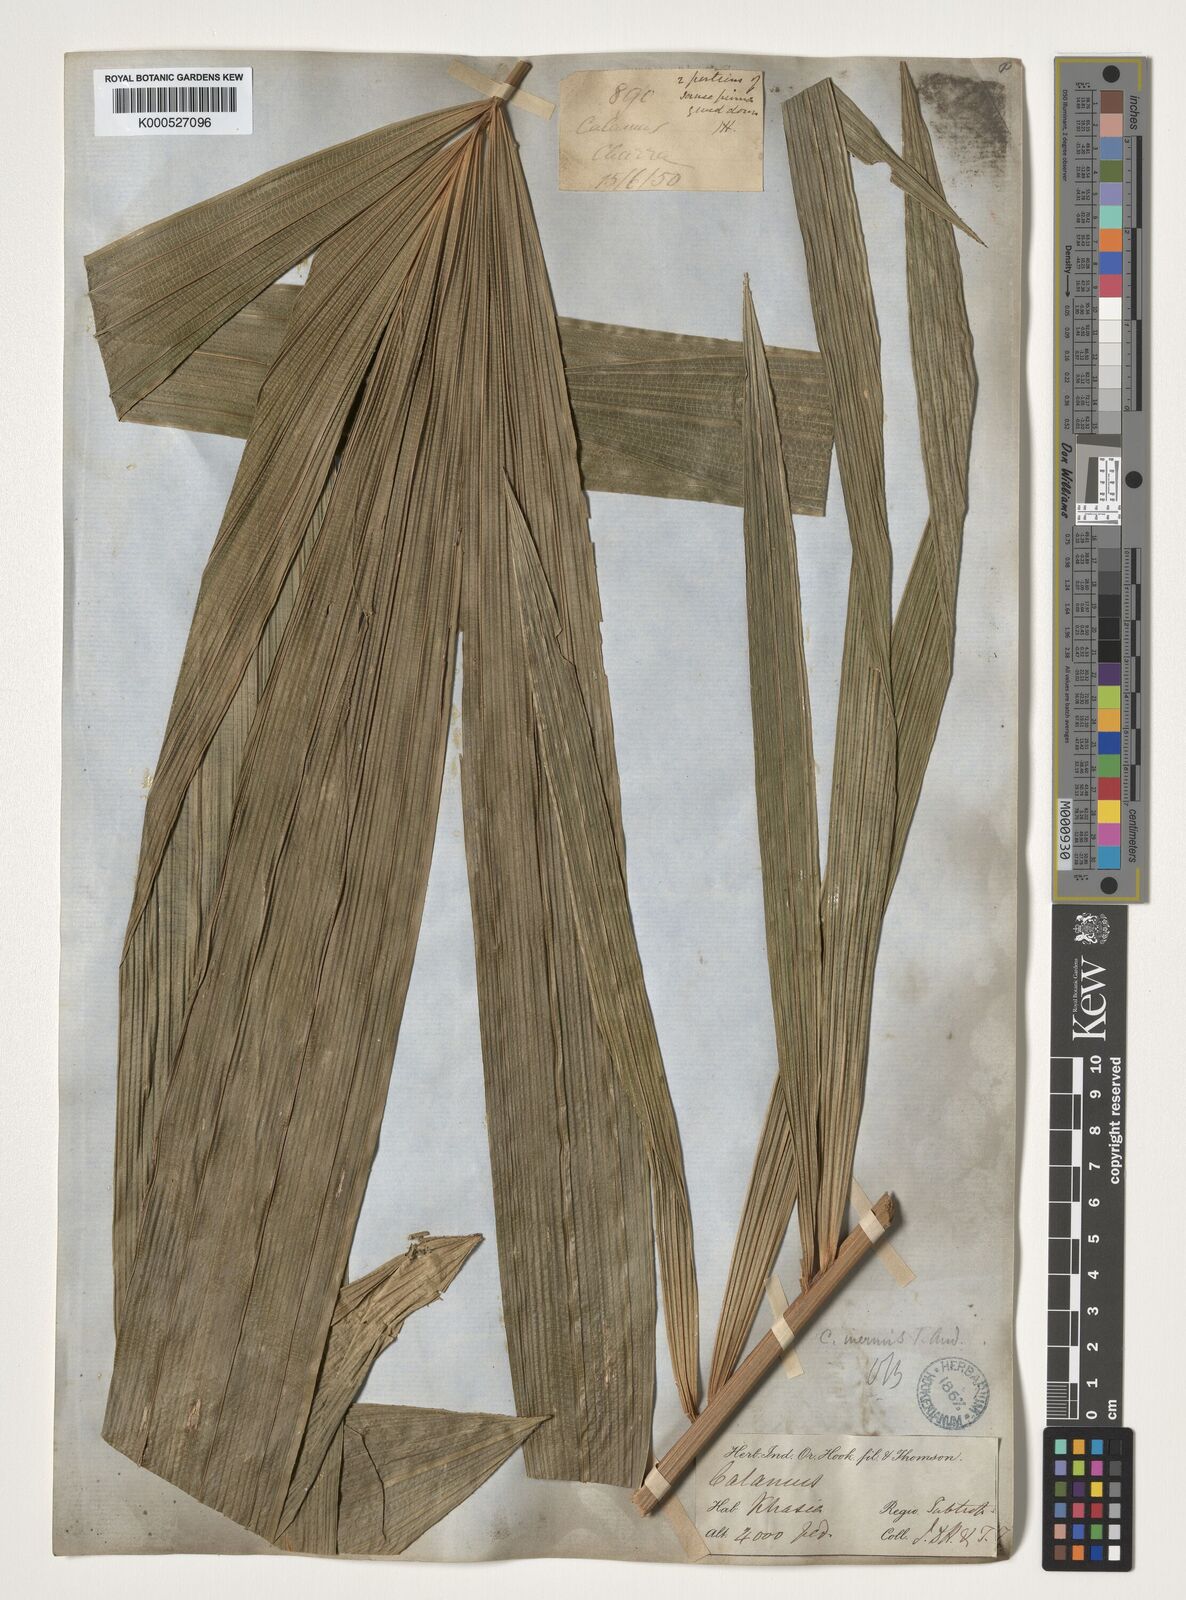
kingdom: Plantae
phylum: Tracheophyta
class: Liliopsida
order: Arecales
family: Arecaceae
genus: Calamus
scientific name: Calamus latifolius
